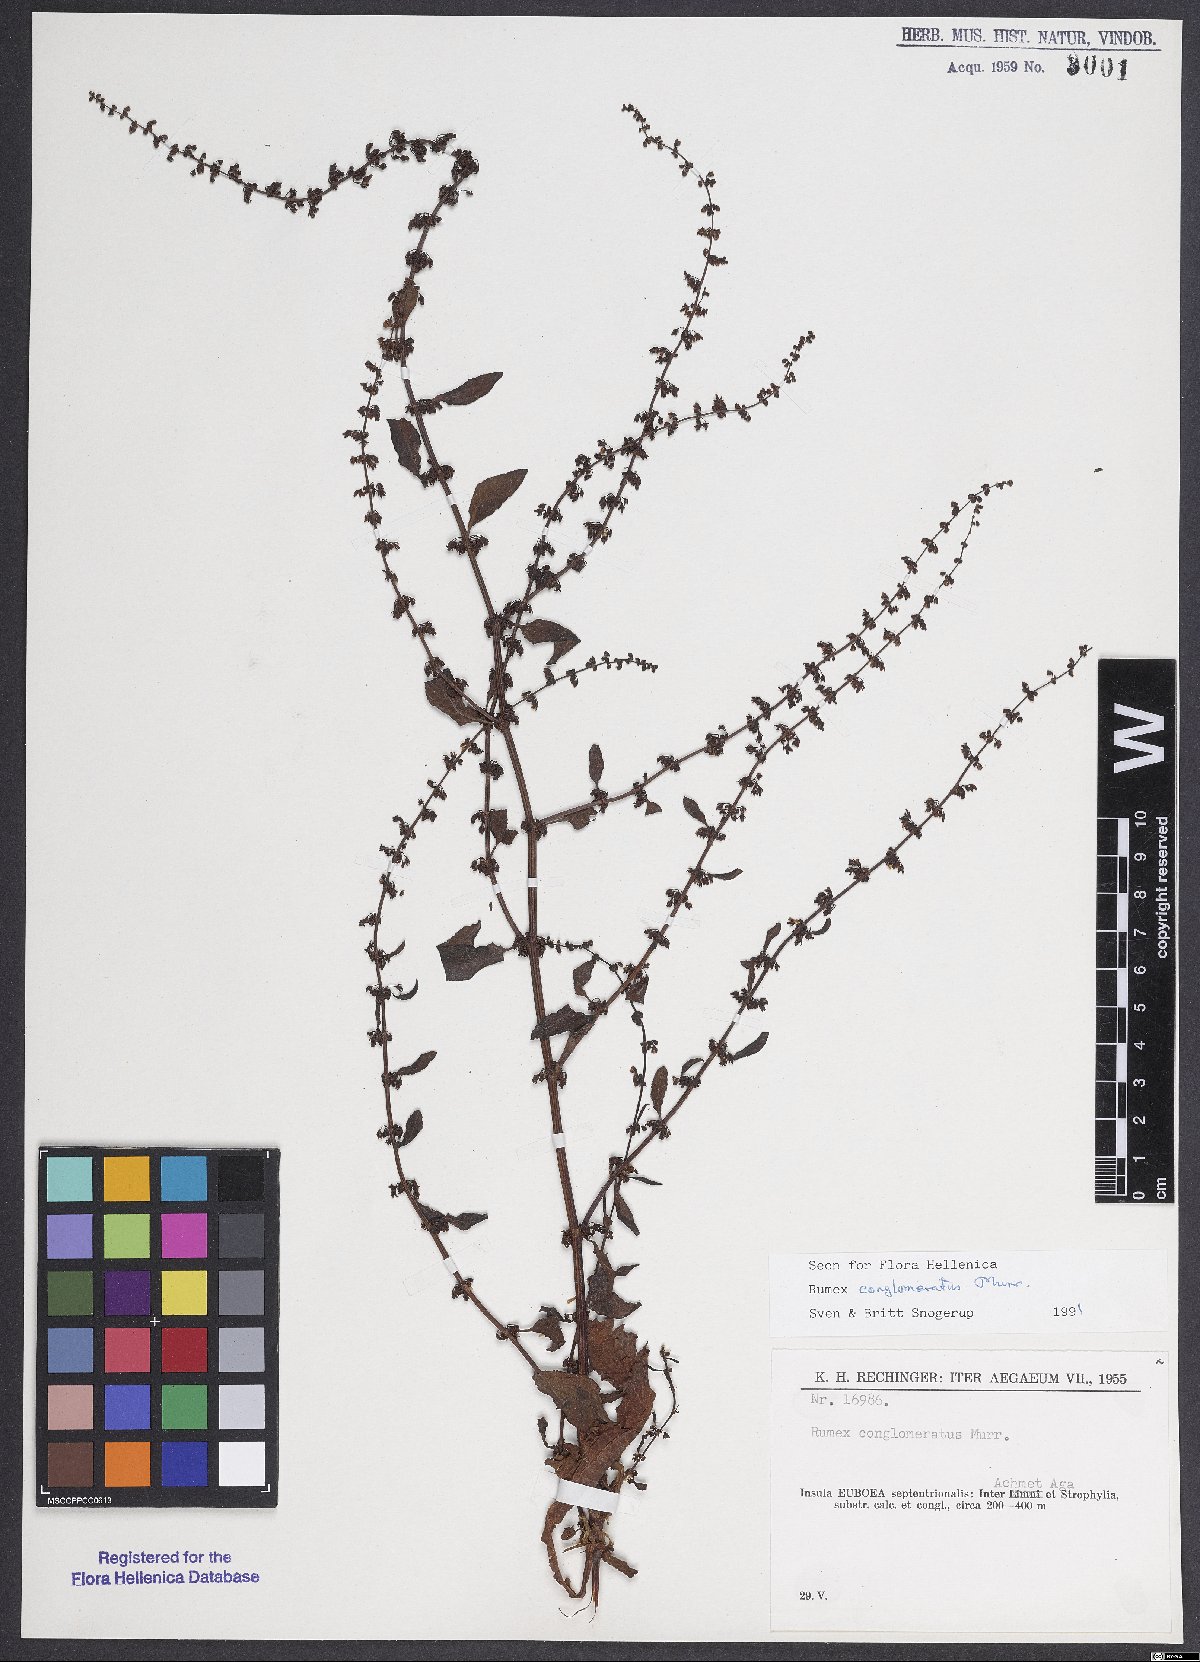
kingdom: Plantae
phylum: Tracheophyta
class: Magnoliopsida
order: Caryophyllales
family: Polygonaceae
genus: Rumex
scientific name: Rumex conglomeratus
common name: Clustered dock
